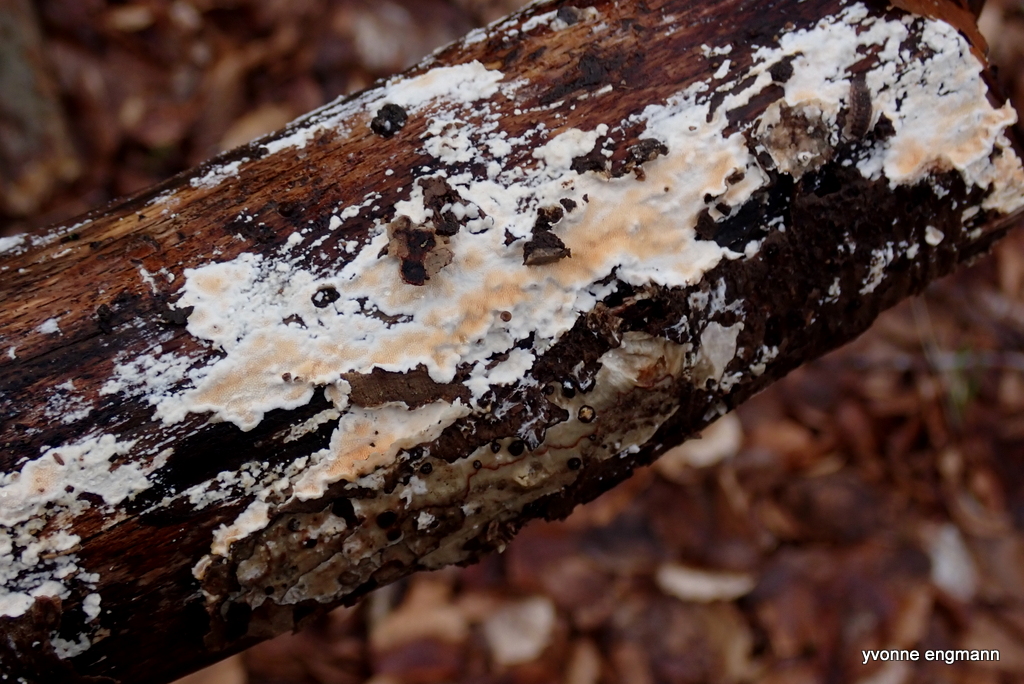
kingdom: Fungi
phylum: Basidiomycota
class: Agaricomycetes
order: Polyporales
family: Steccherinaceae
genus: Steccherinum
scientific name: Steccherinum ochraceum
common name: almindelig skønpig
